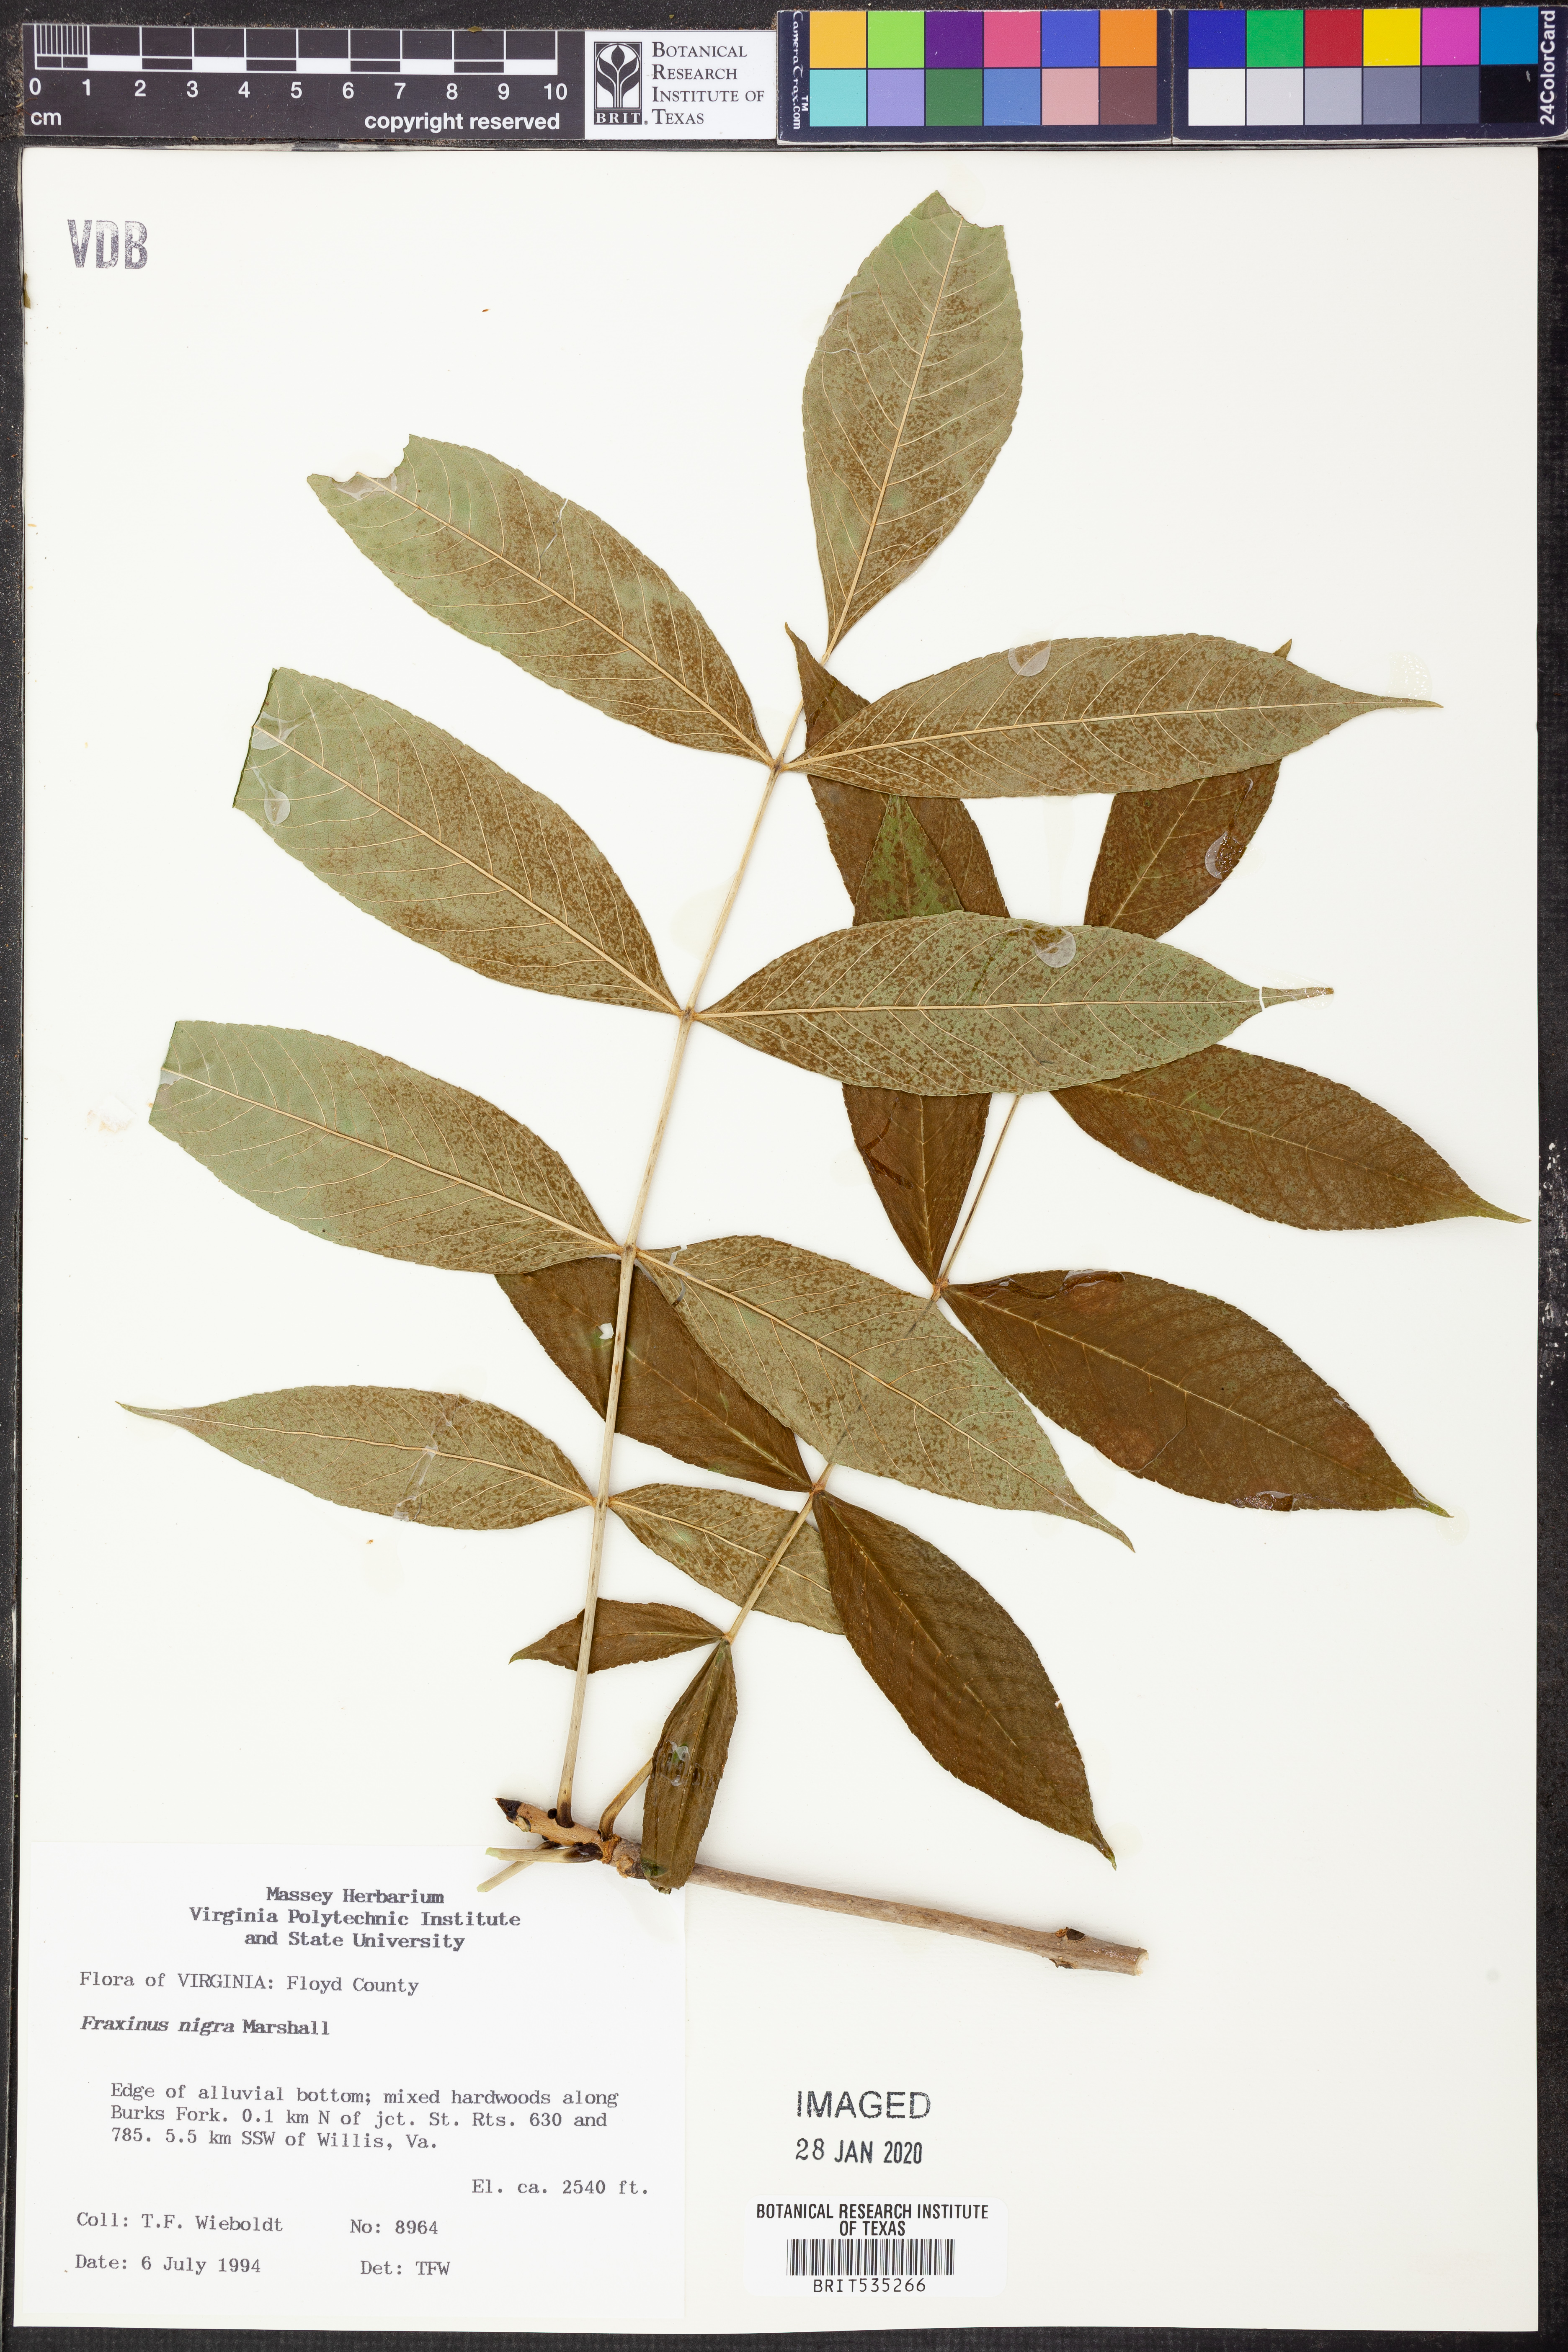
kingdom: Plantae
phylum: Tracheophyta
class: Magnoliopsida
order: Lamiales
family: Oleaceae
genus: Fraxinus
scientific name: Fraxinus nigra
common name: Black ash
